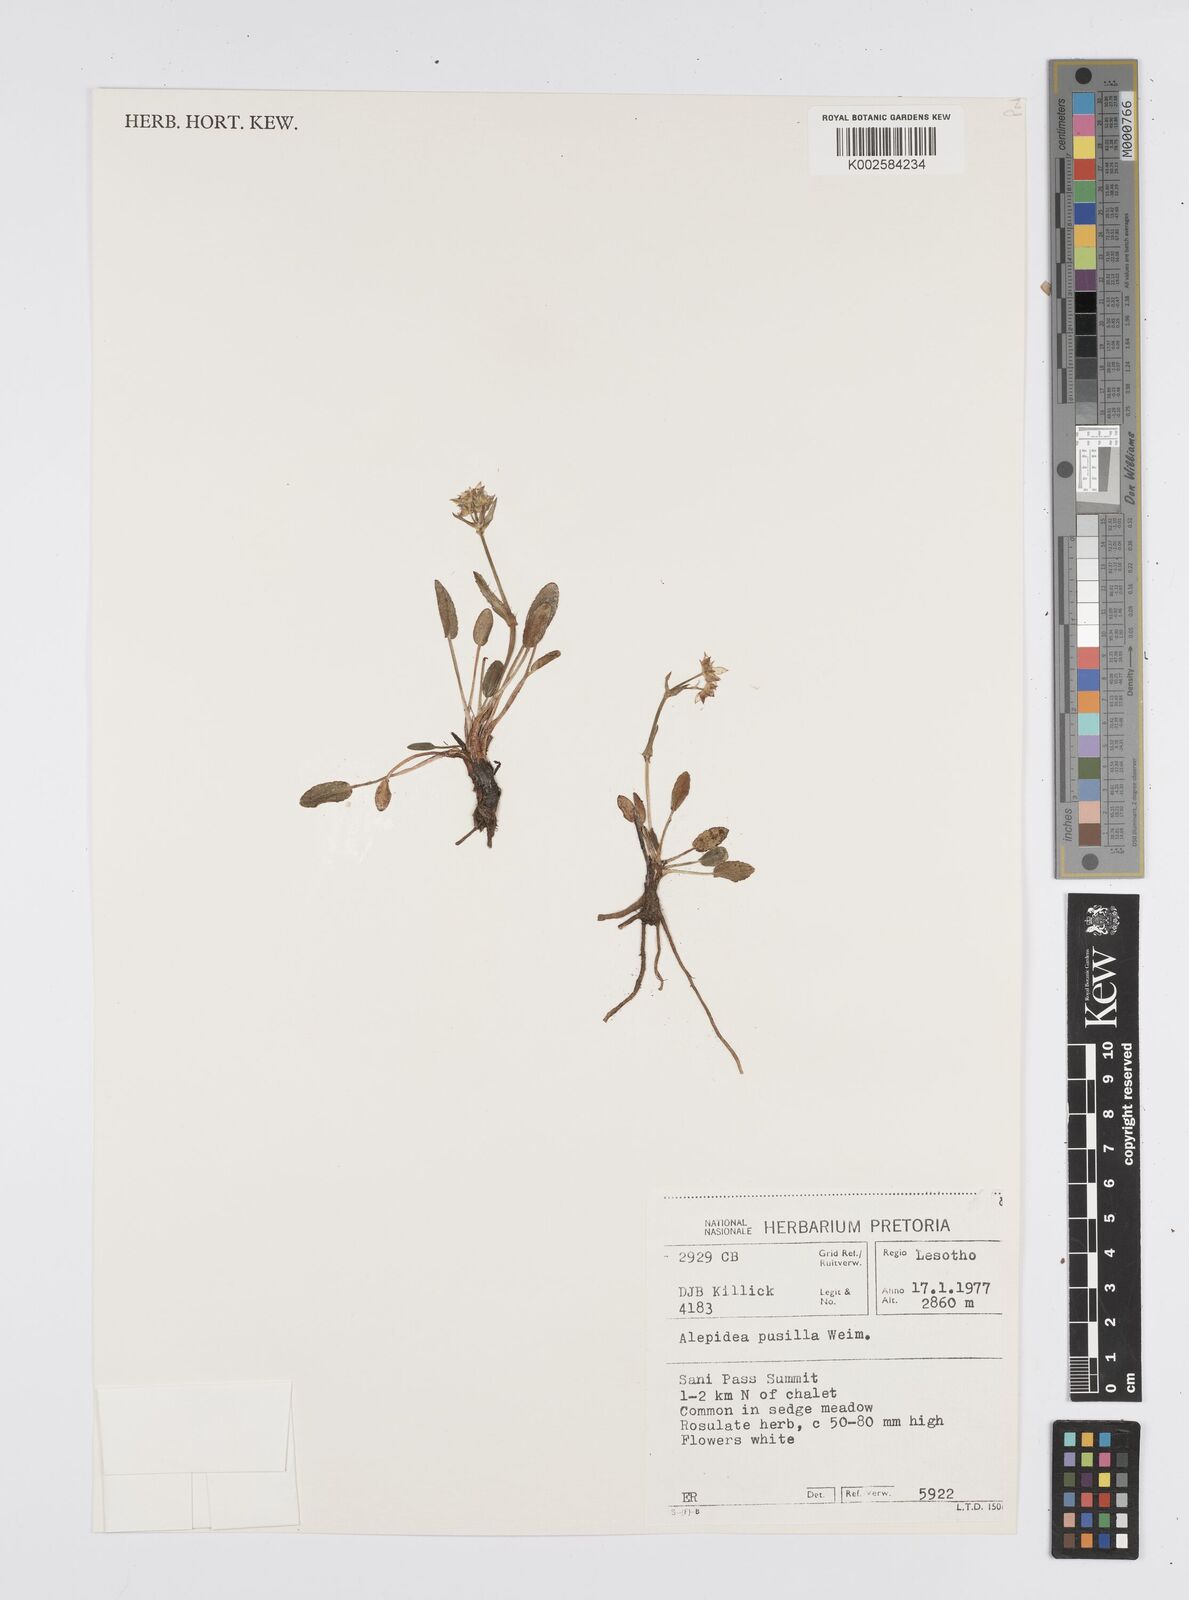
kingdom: Plantae
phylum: Tracheophyta
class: Magnoliopsida
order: Apiales
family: Apiaceae
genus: Alepidea
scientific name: Alepidea pusilla
